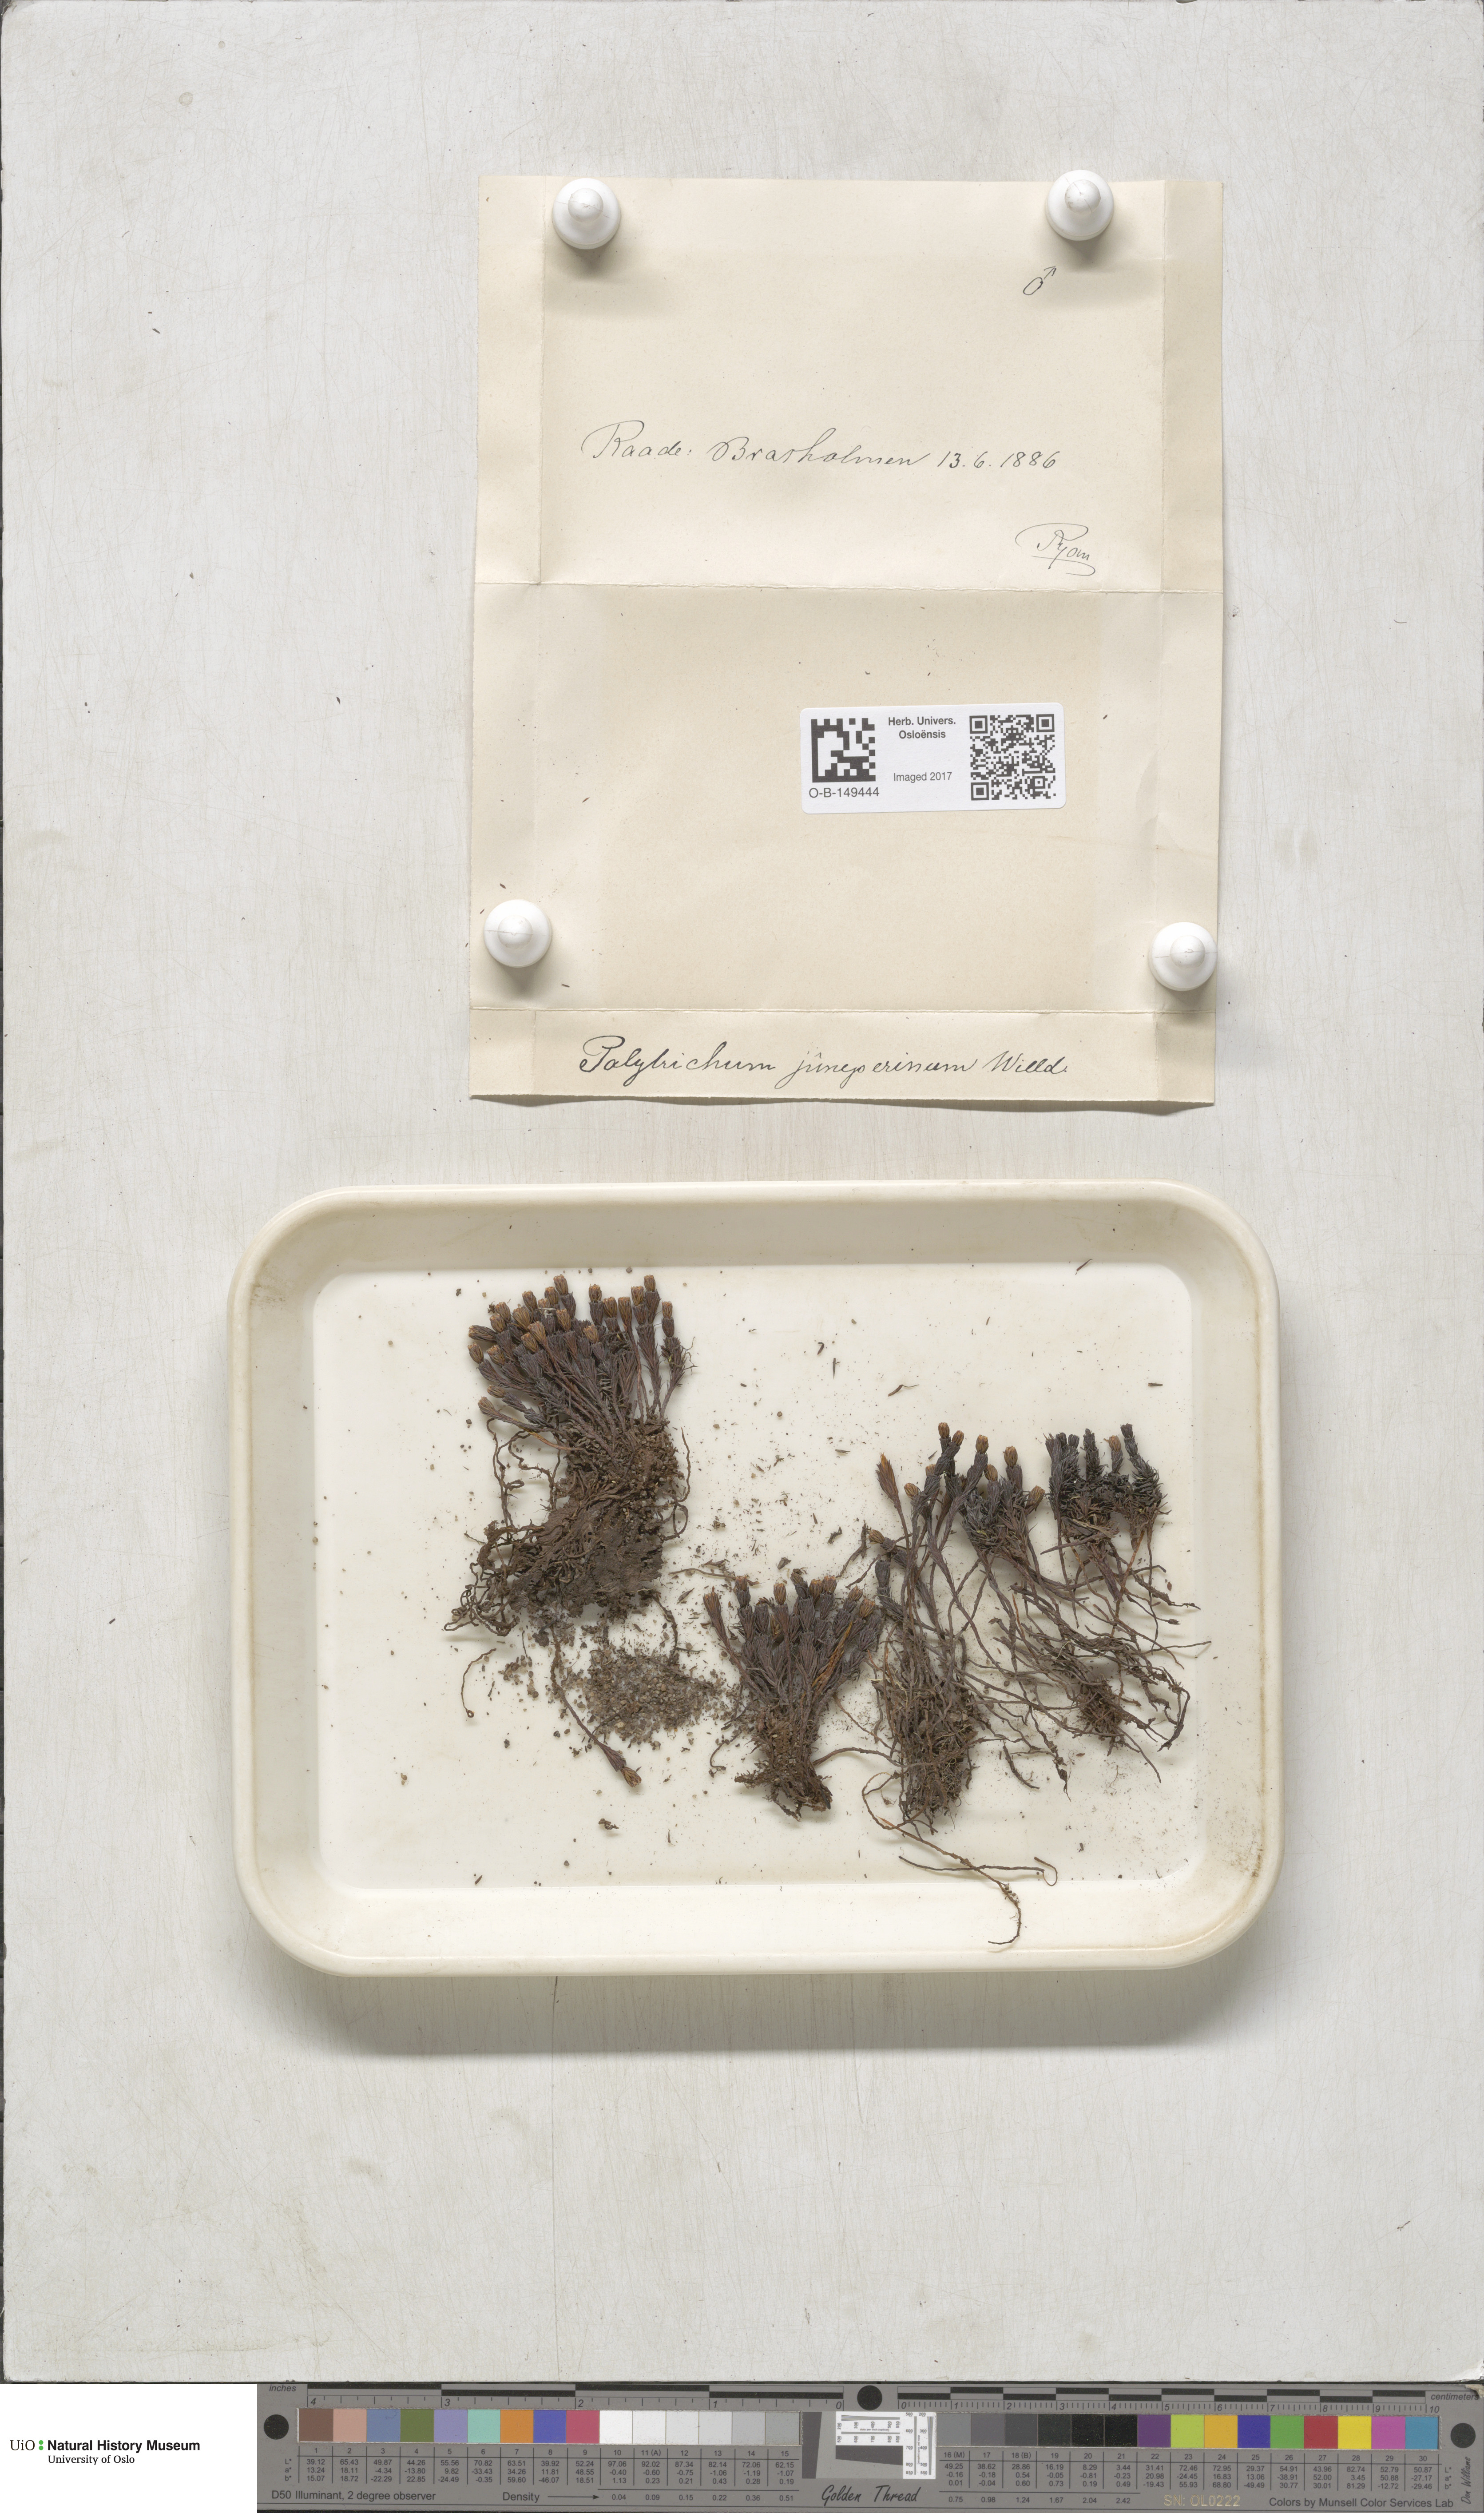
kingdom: Plantae
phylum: Bryophyta
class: Polytrichopsida
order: Polytrichales
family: Polytrichaceae
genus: Polytrichum
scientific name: Polytrichum juniperinum
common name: Juniper haircap moss
